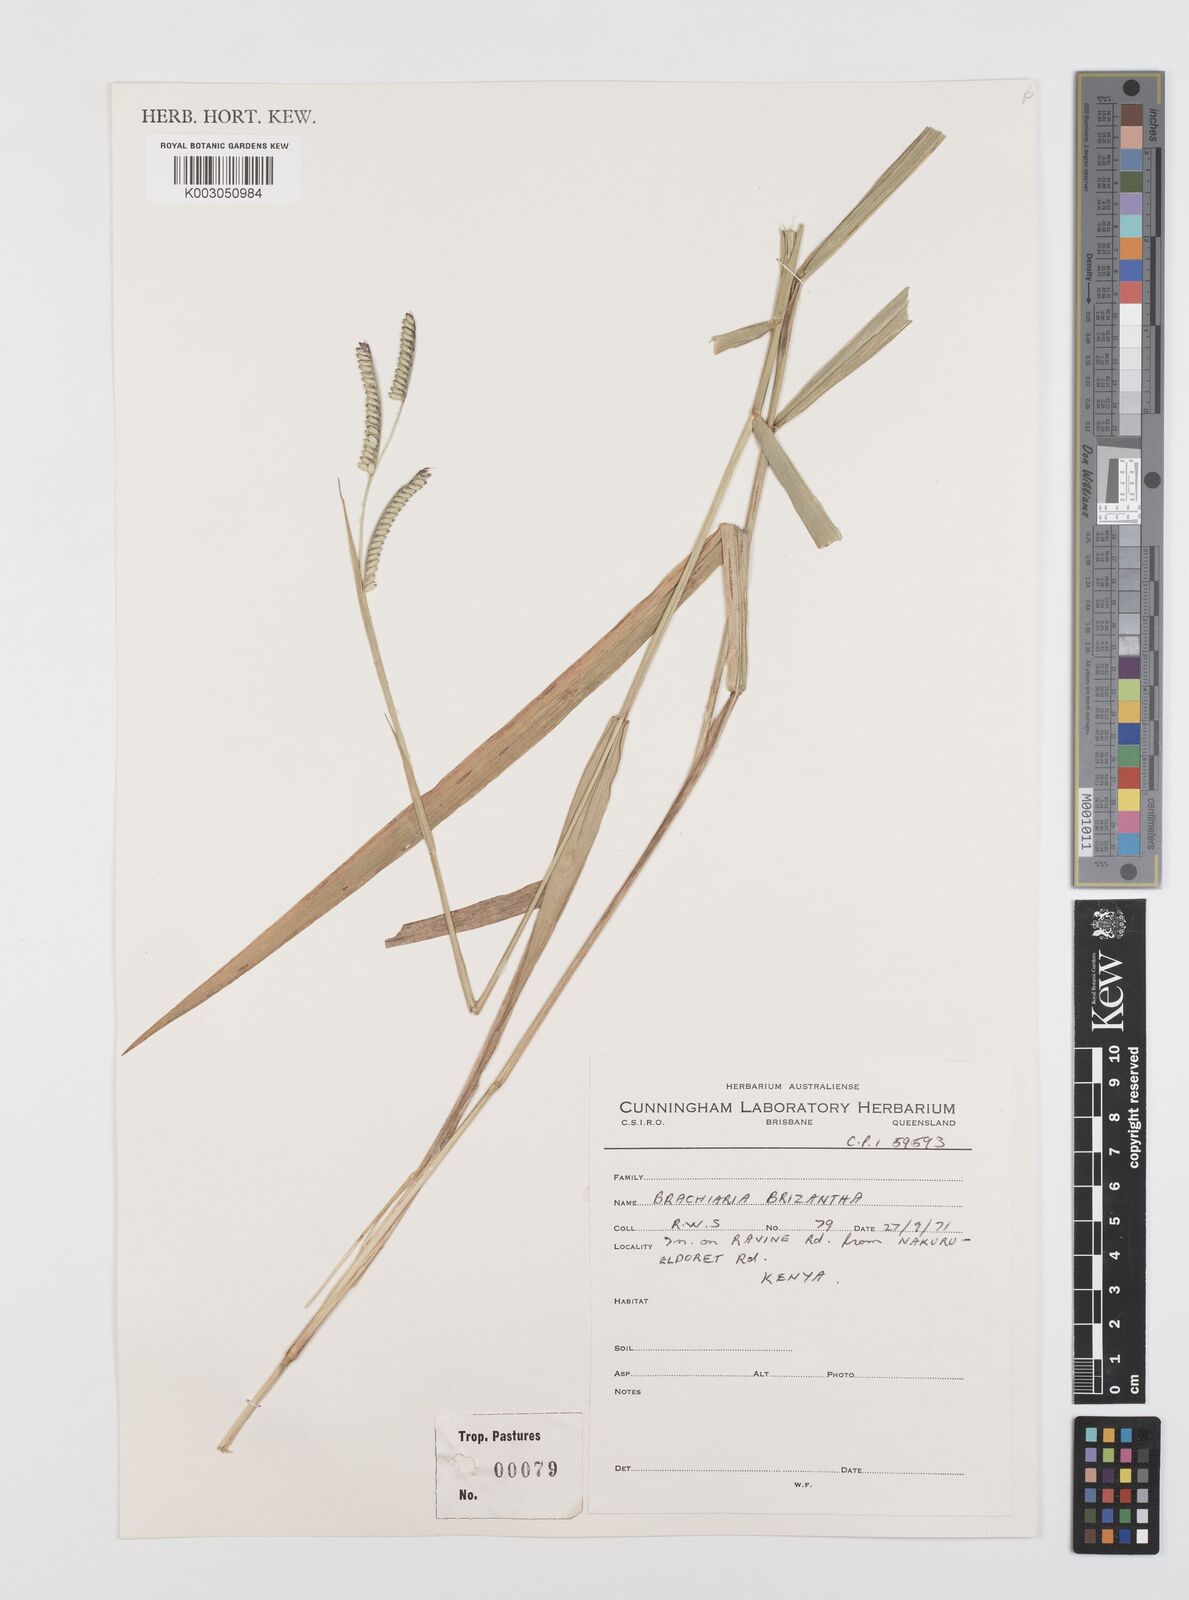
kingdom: Plantae
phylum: Tracheophyta
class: Liliopsida
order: Poales
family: Poaceae
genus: Urochloa
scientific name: Urochloa brizantha
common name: Palisade signalgrass
